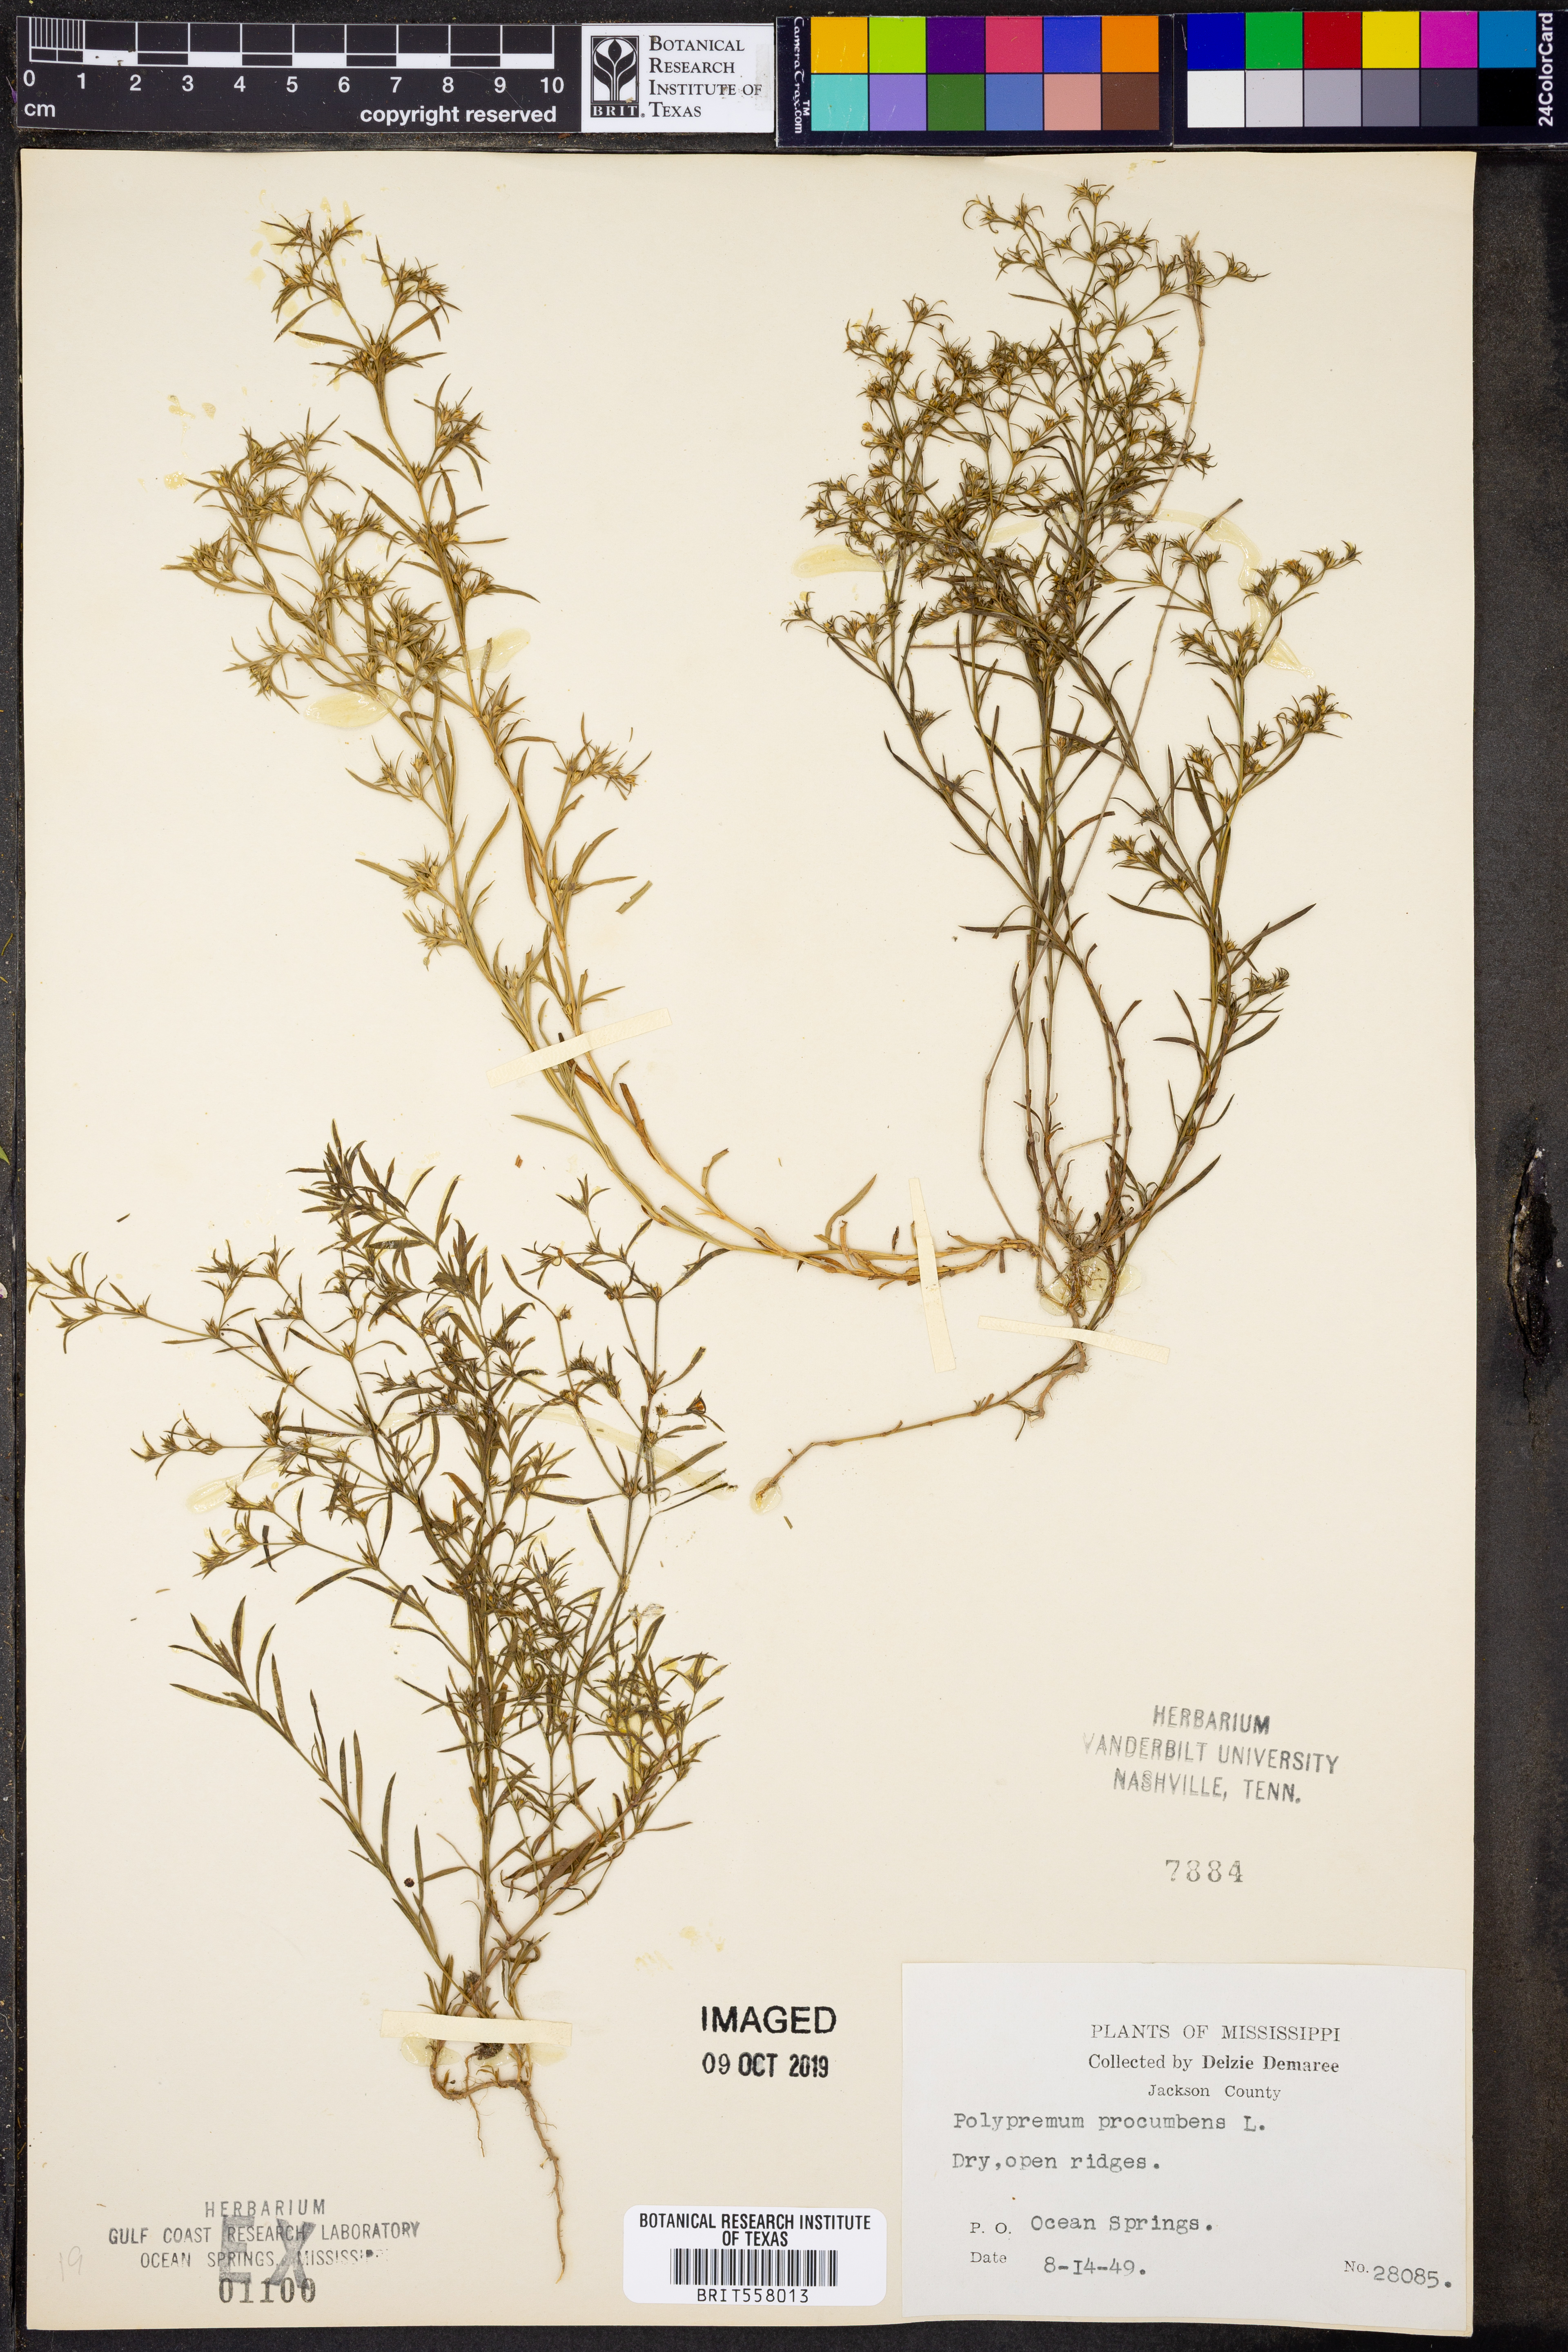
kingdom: Plantae
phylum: Tracheophyta
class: Magnoliopsida
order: Lamiales
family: Tetrachondraceae
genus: Polypremum
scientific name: Polypremum procumbens
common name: Juniper-leaf
